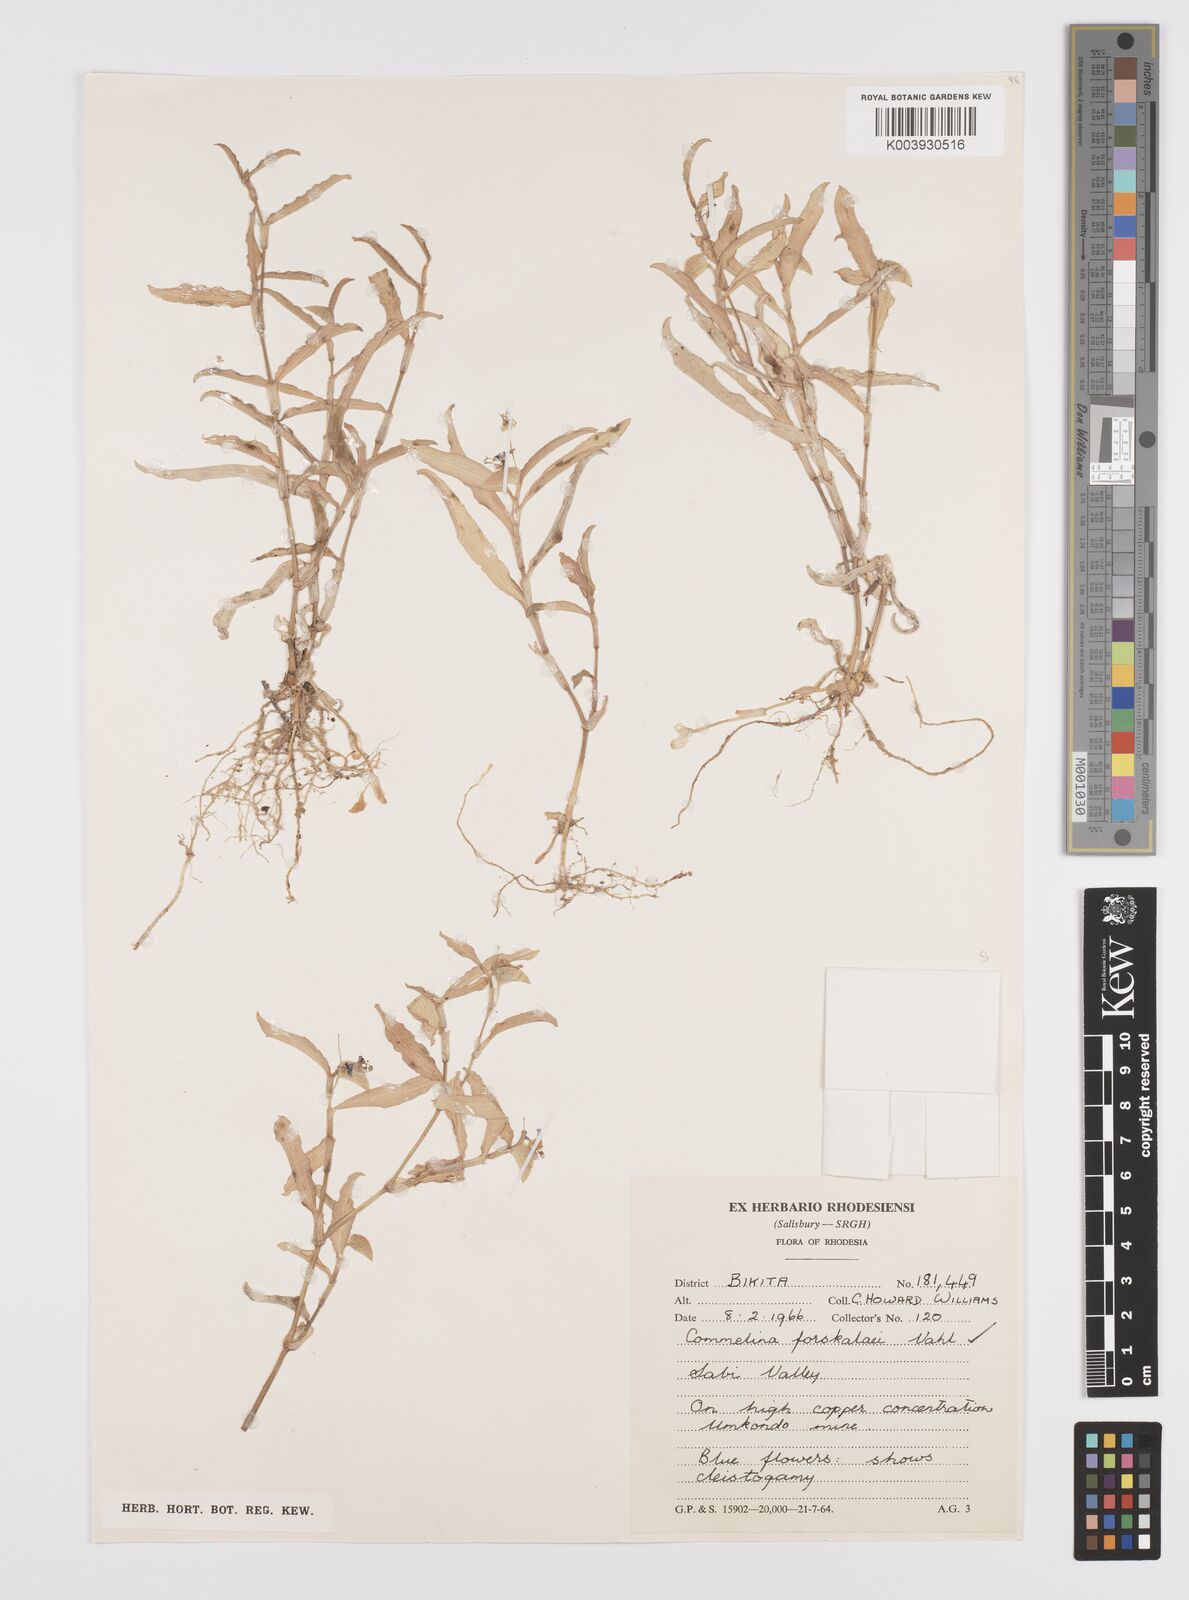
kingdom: Plantae
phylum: Tracheophyta
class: Liliopsida
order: Commelinales
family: Commelinaceae
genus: Commelina
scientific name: Commelina forskaolii
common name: Rat's ear
